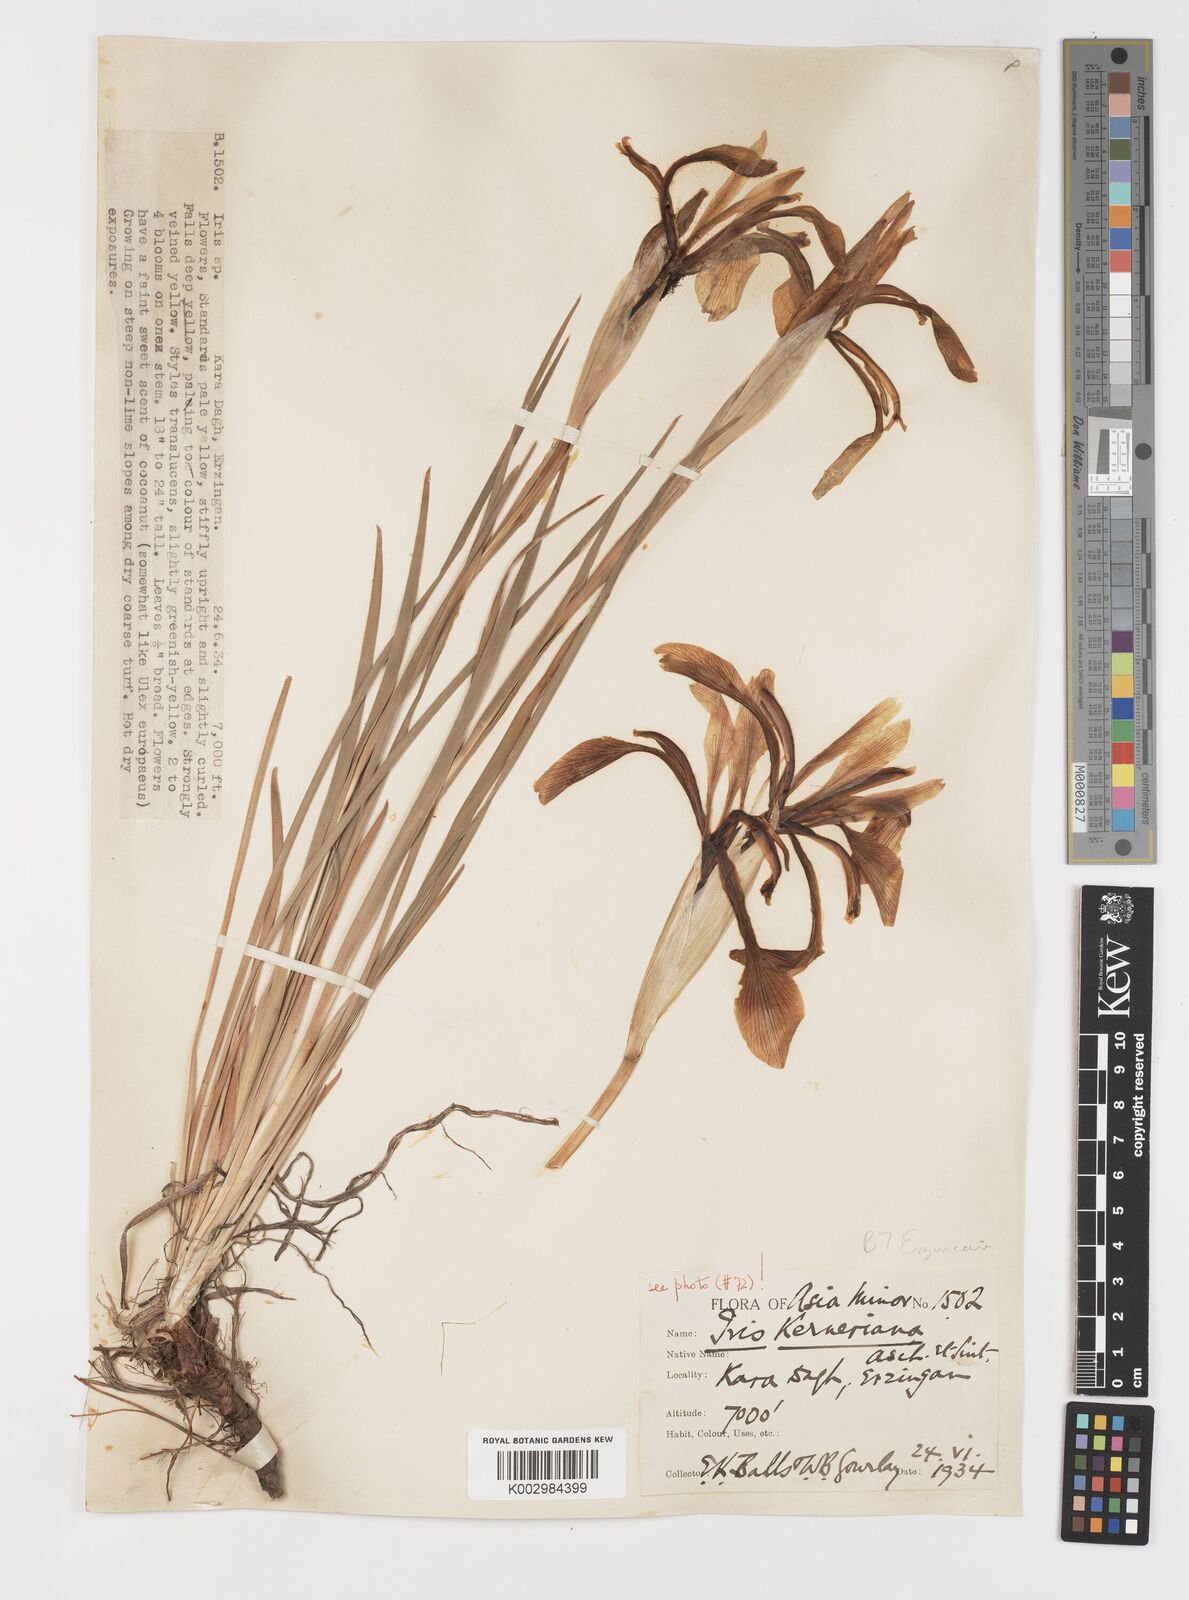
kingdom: Plantae
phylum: Tracheophyta
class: Liliopsida
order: Asparagales
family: Iridaceae
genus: Iris
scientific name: Iris haussknechtii
